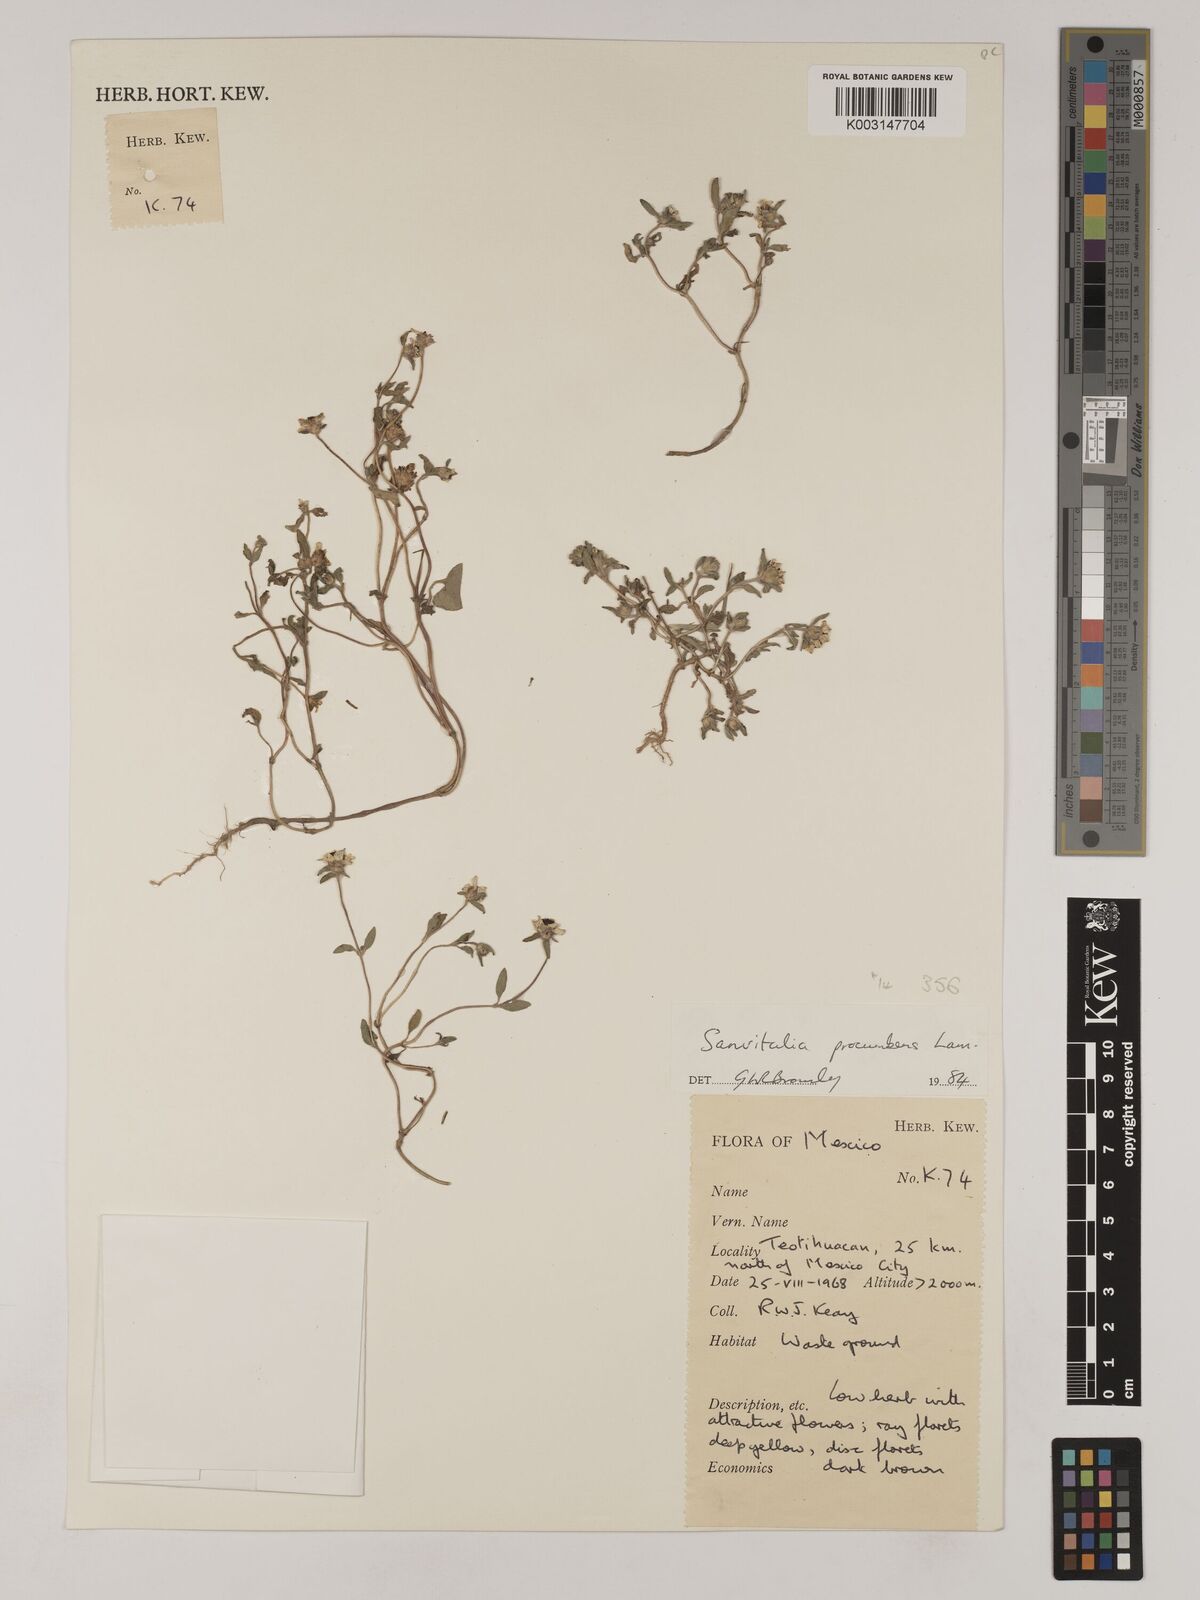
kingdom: Plantae
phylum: Tracheophyta
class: Magnoliopsida
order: Asterales
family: Asteraceae
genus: Sanvitalia
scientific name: Sanvitalia procumbens
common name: Mexican creeping zinnia
